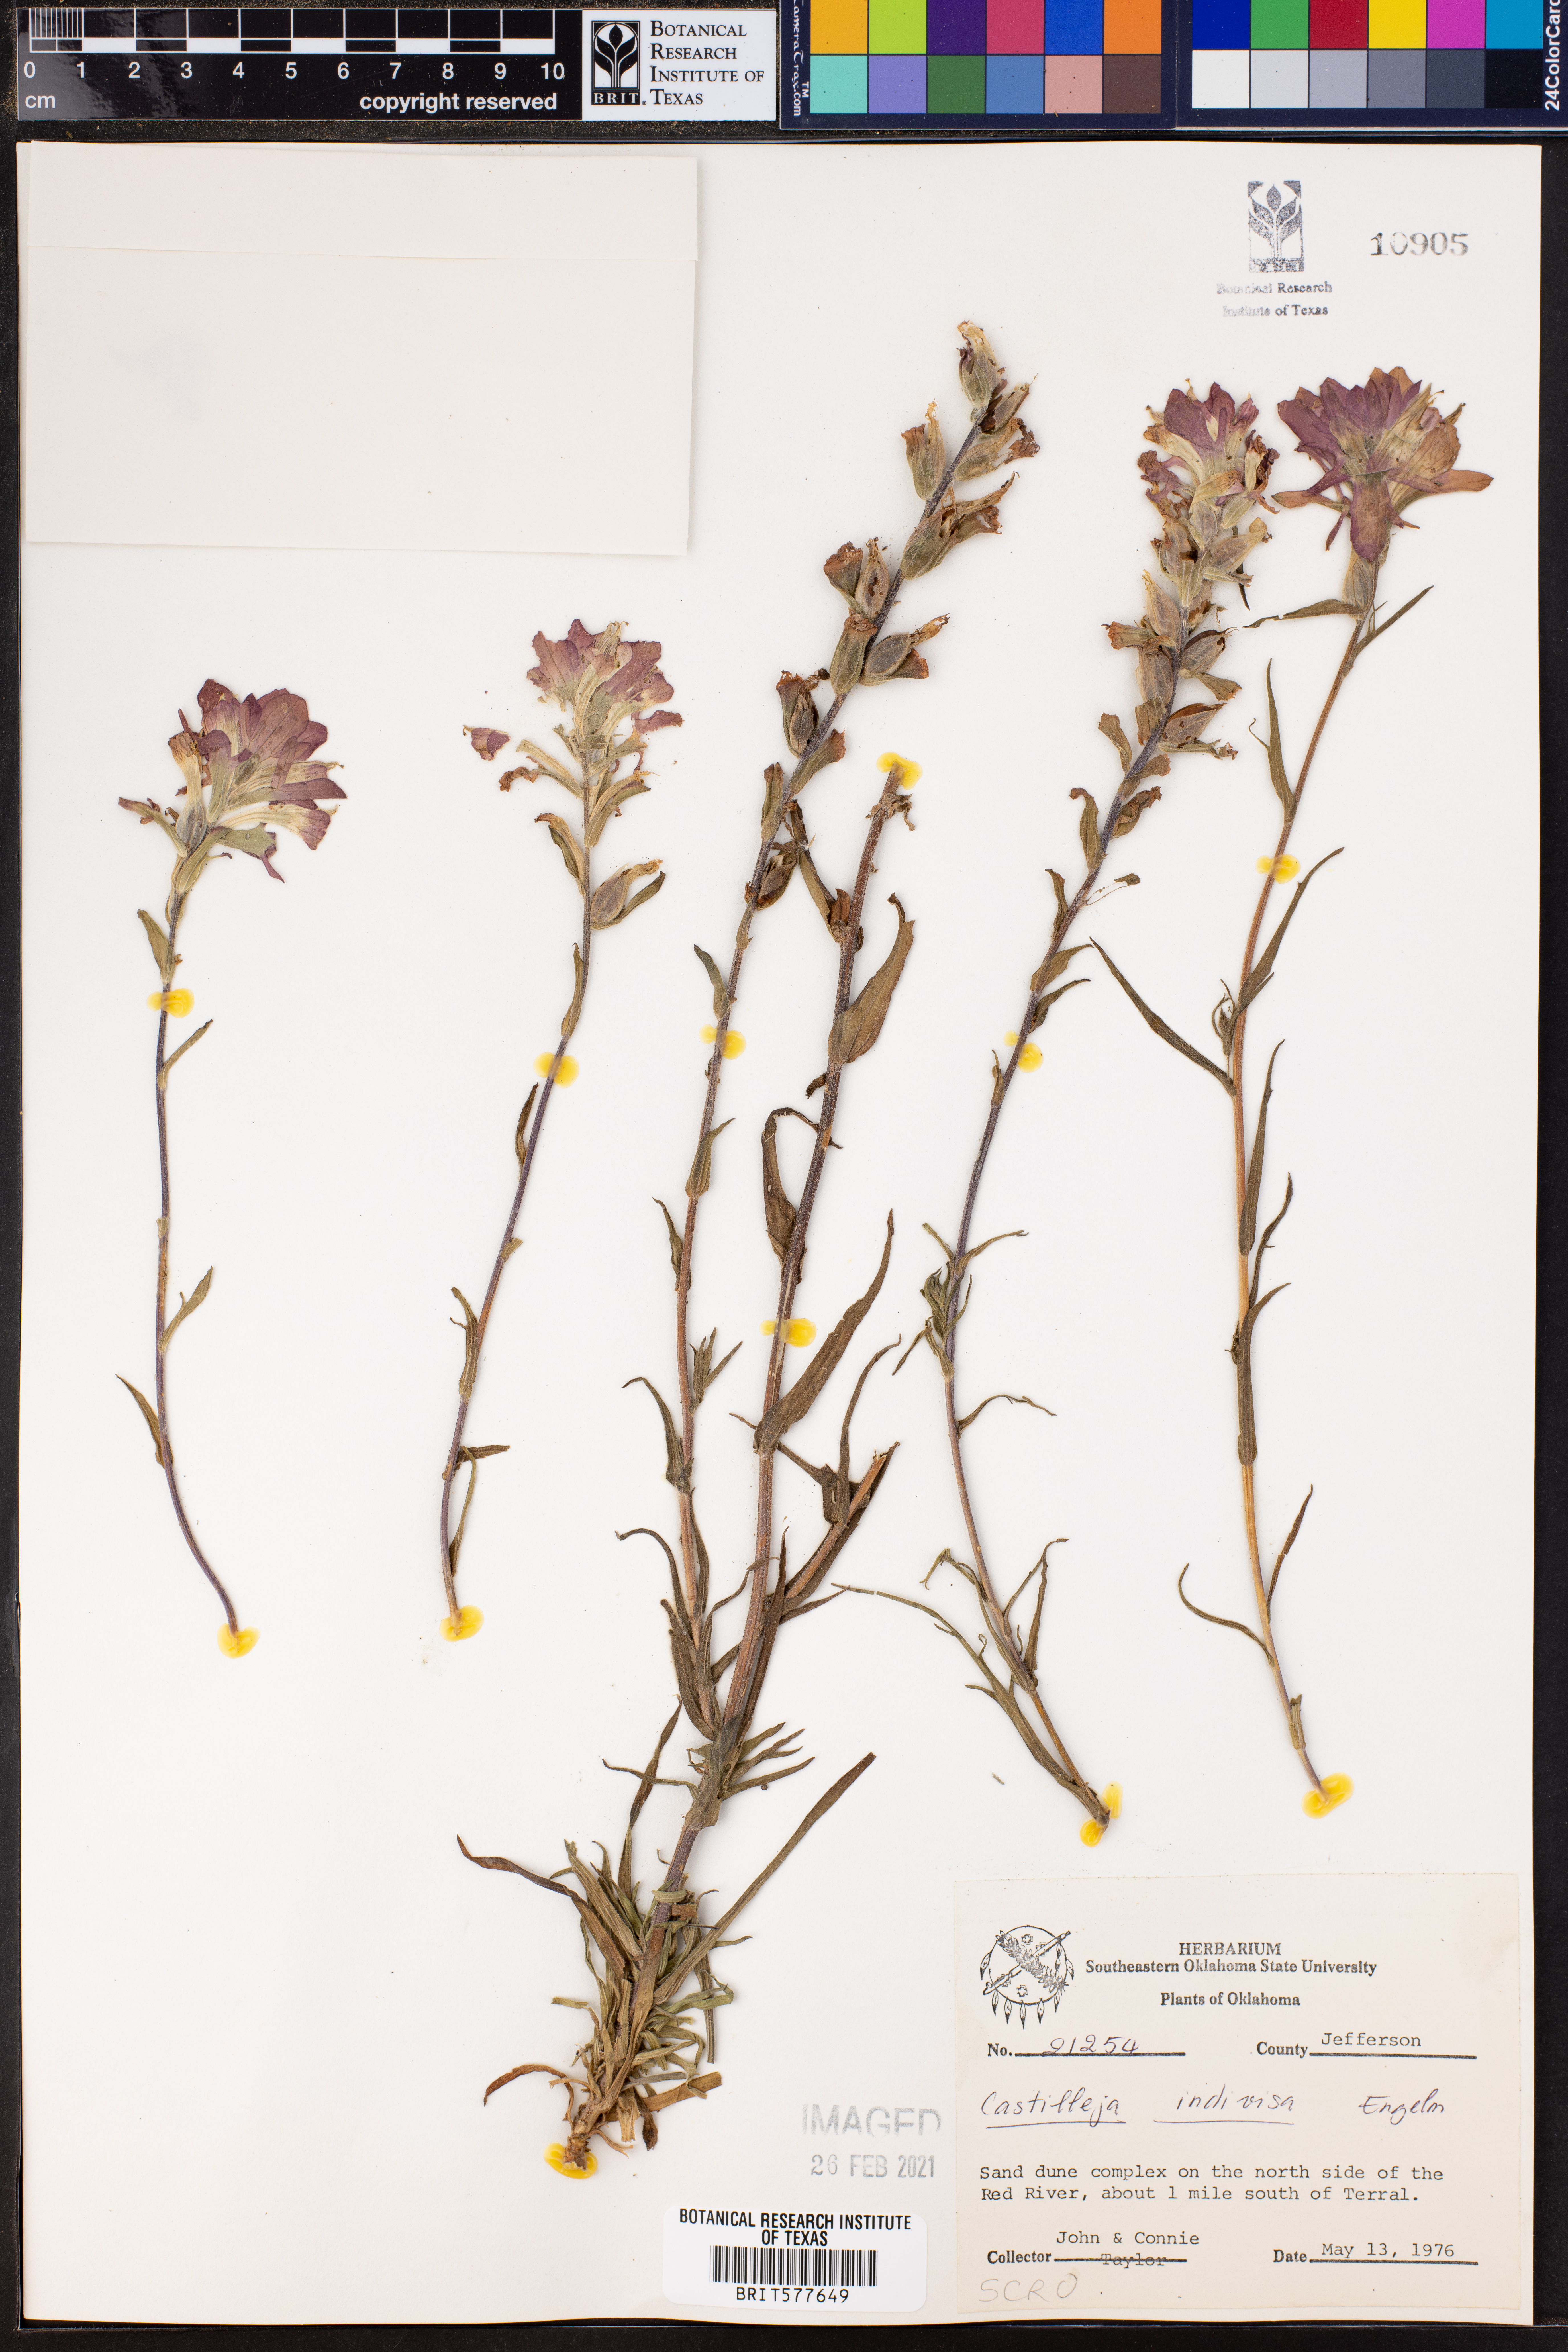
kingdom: Plantae
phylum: Tracheophyta
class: Magnoliopsida
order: Lamiales
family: Orobanchaceae
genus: Castilleja
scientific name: Castilleja indivisa
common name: Texas paintbrush
